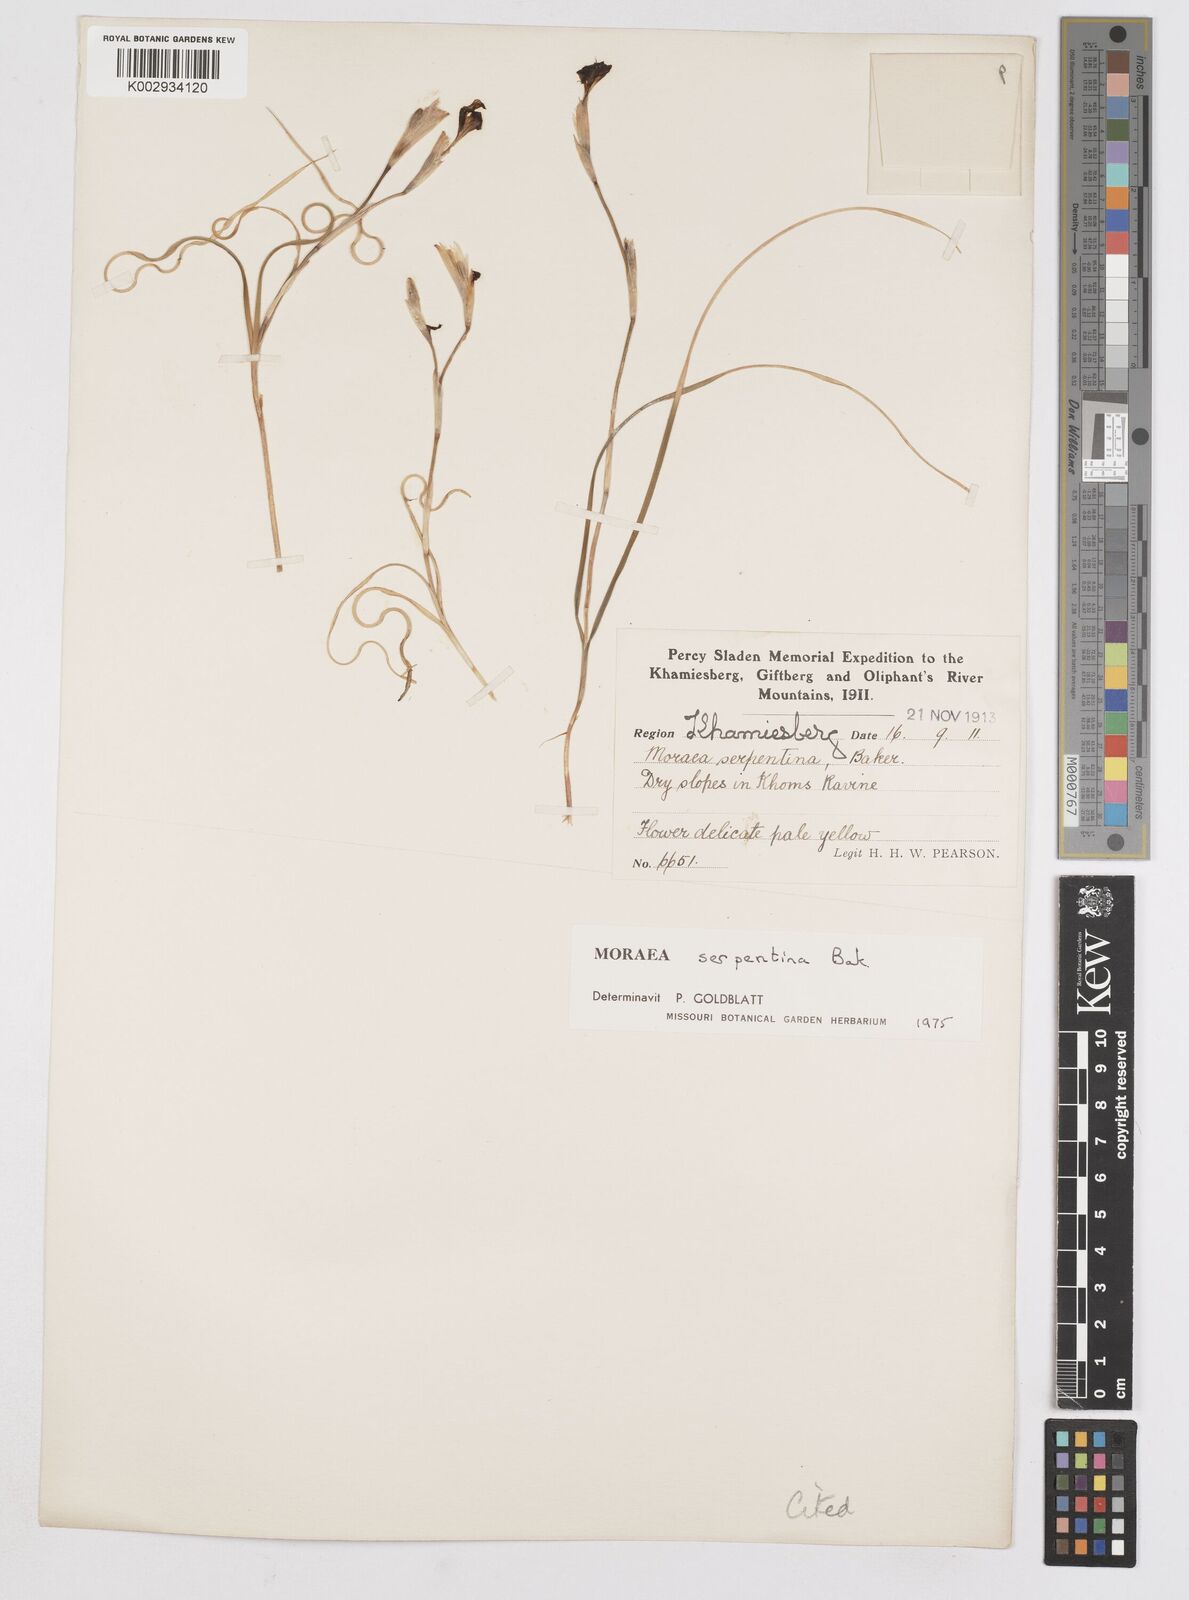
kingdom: Plantae
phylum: Tracheophyta
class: Liliopsida
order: Asparagales
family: Iridaceae
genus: Moraea
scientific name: Moraea serpentina
